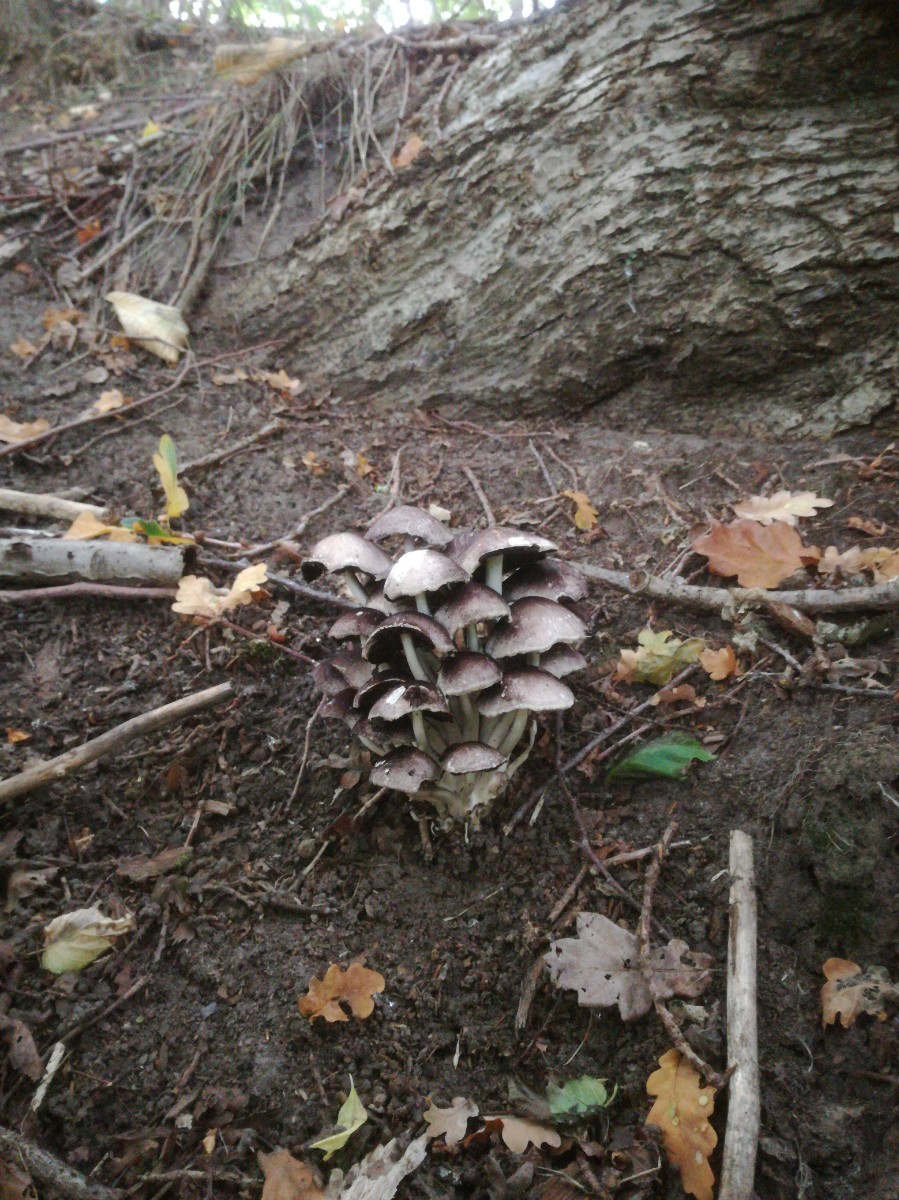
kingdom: Fungi
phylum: Basidiomycota
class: Agaricomycetes
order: Agaricales
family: Psathyrellaceae
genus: Candolleomyces
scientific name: Candolleomyces leucotephrus
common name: askehvid mørkhat
